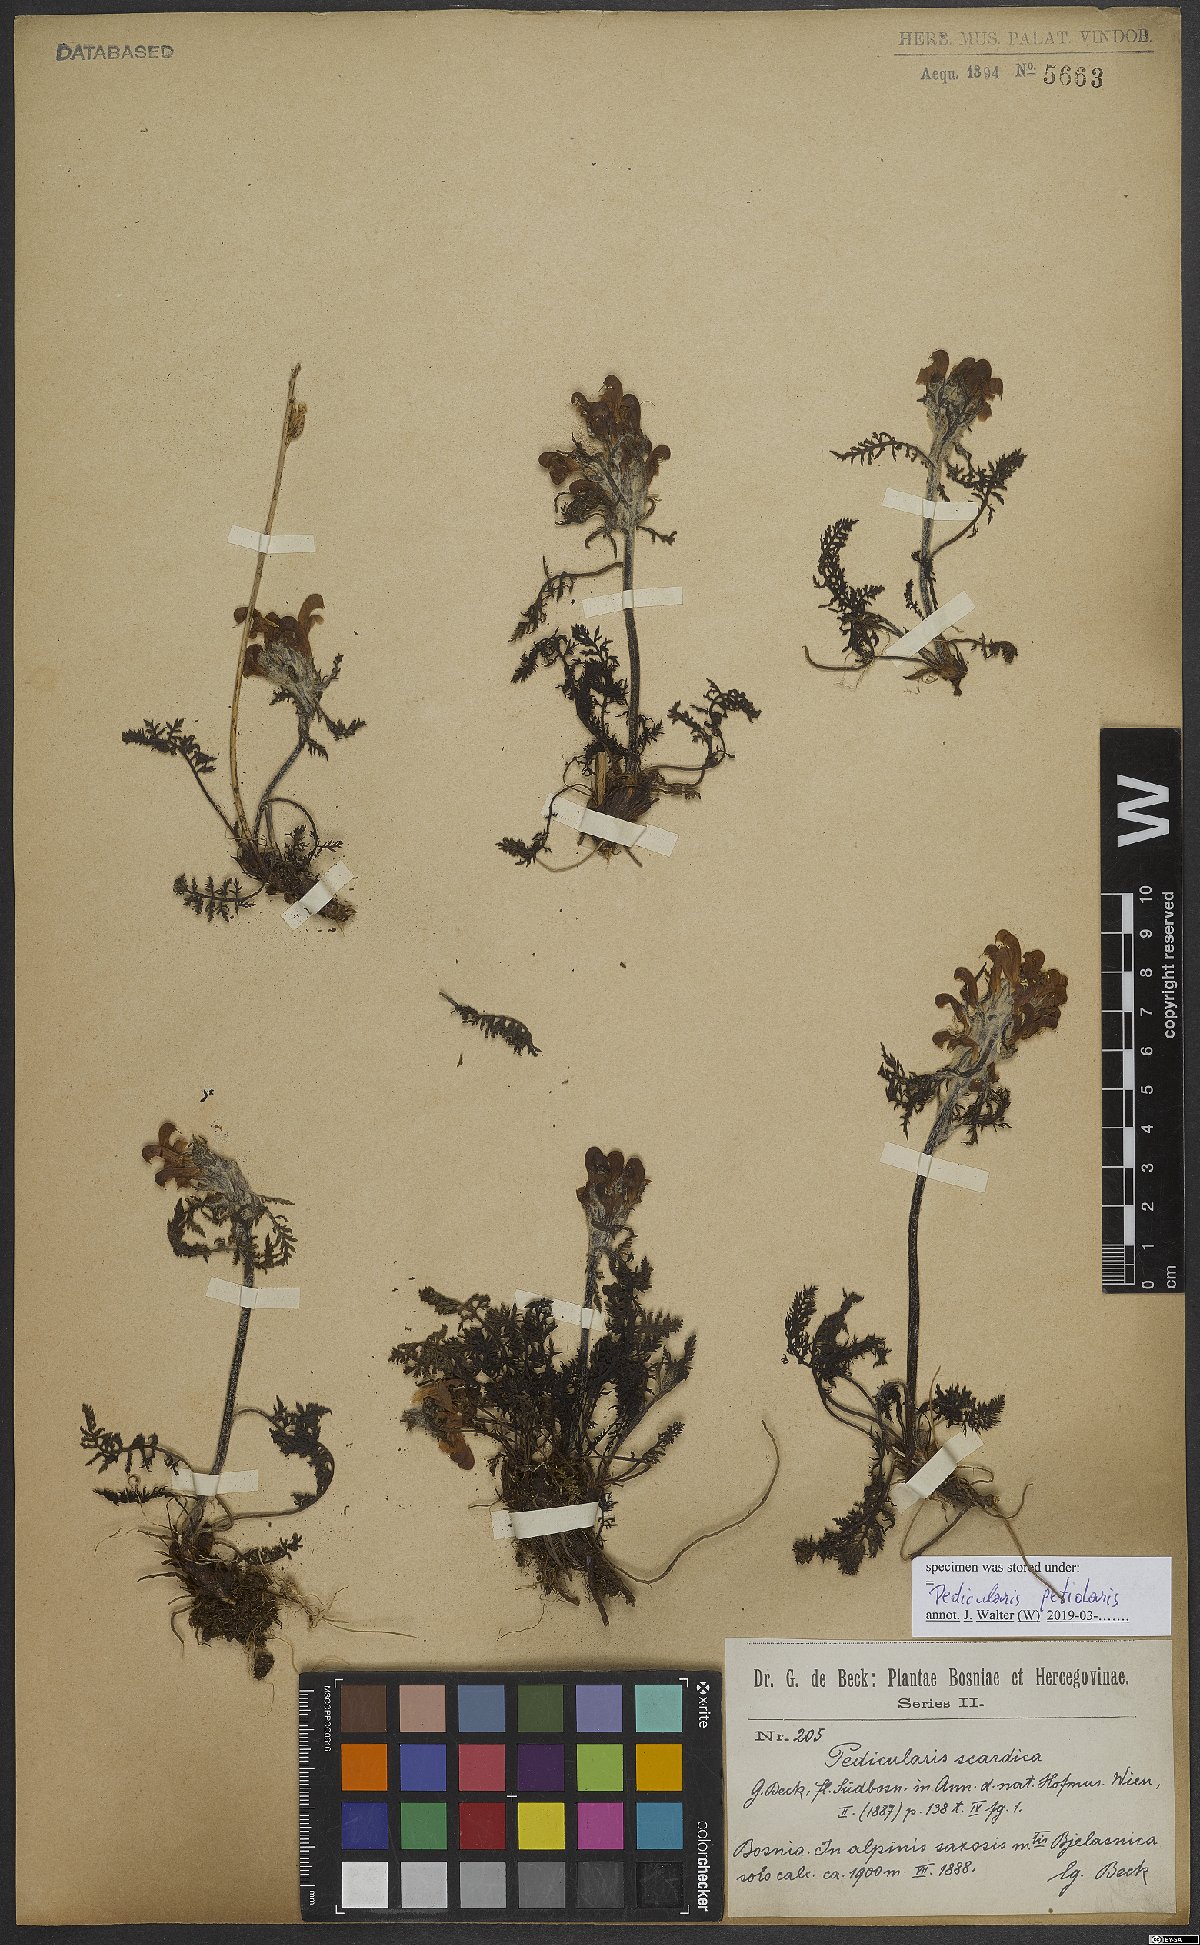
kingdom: Plantae
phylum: Tracheophyta
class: Magnoliopsida
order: Lamiales
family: Orobanchaceae
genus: Pedicularis
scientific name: Pedicularis petiolaris
